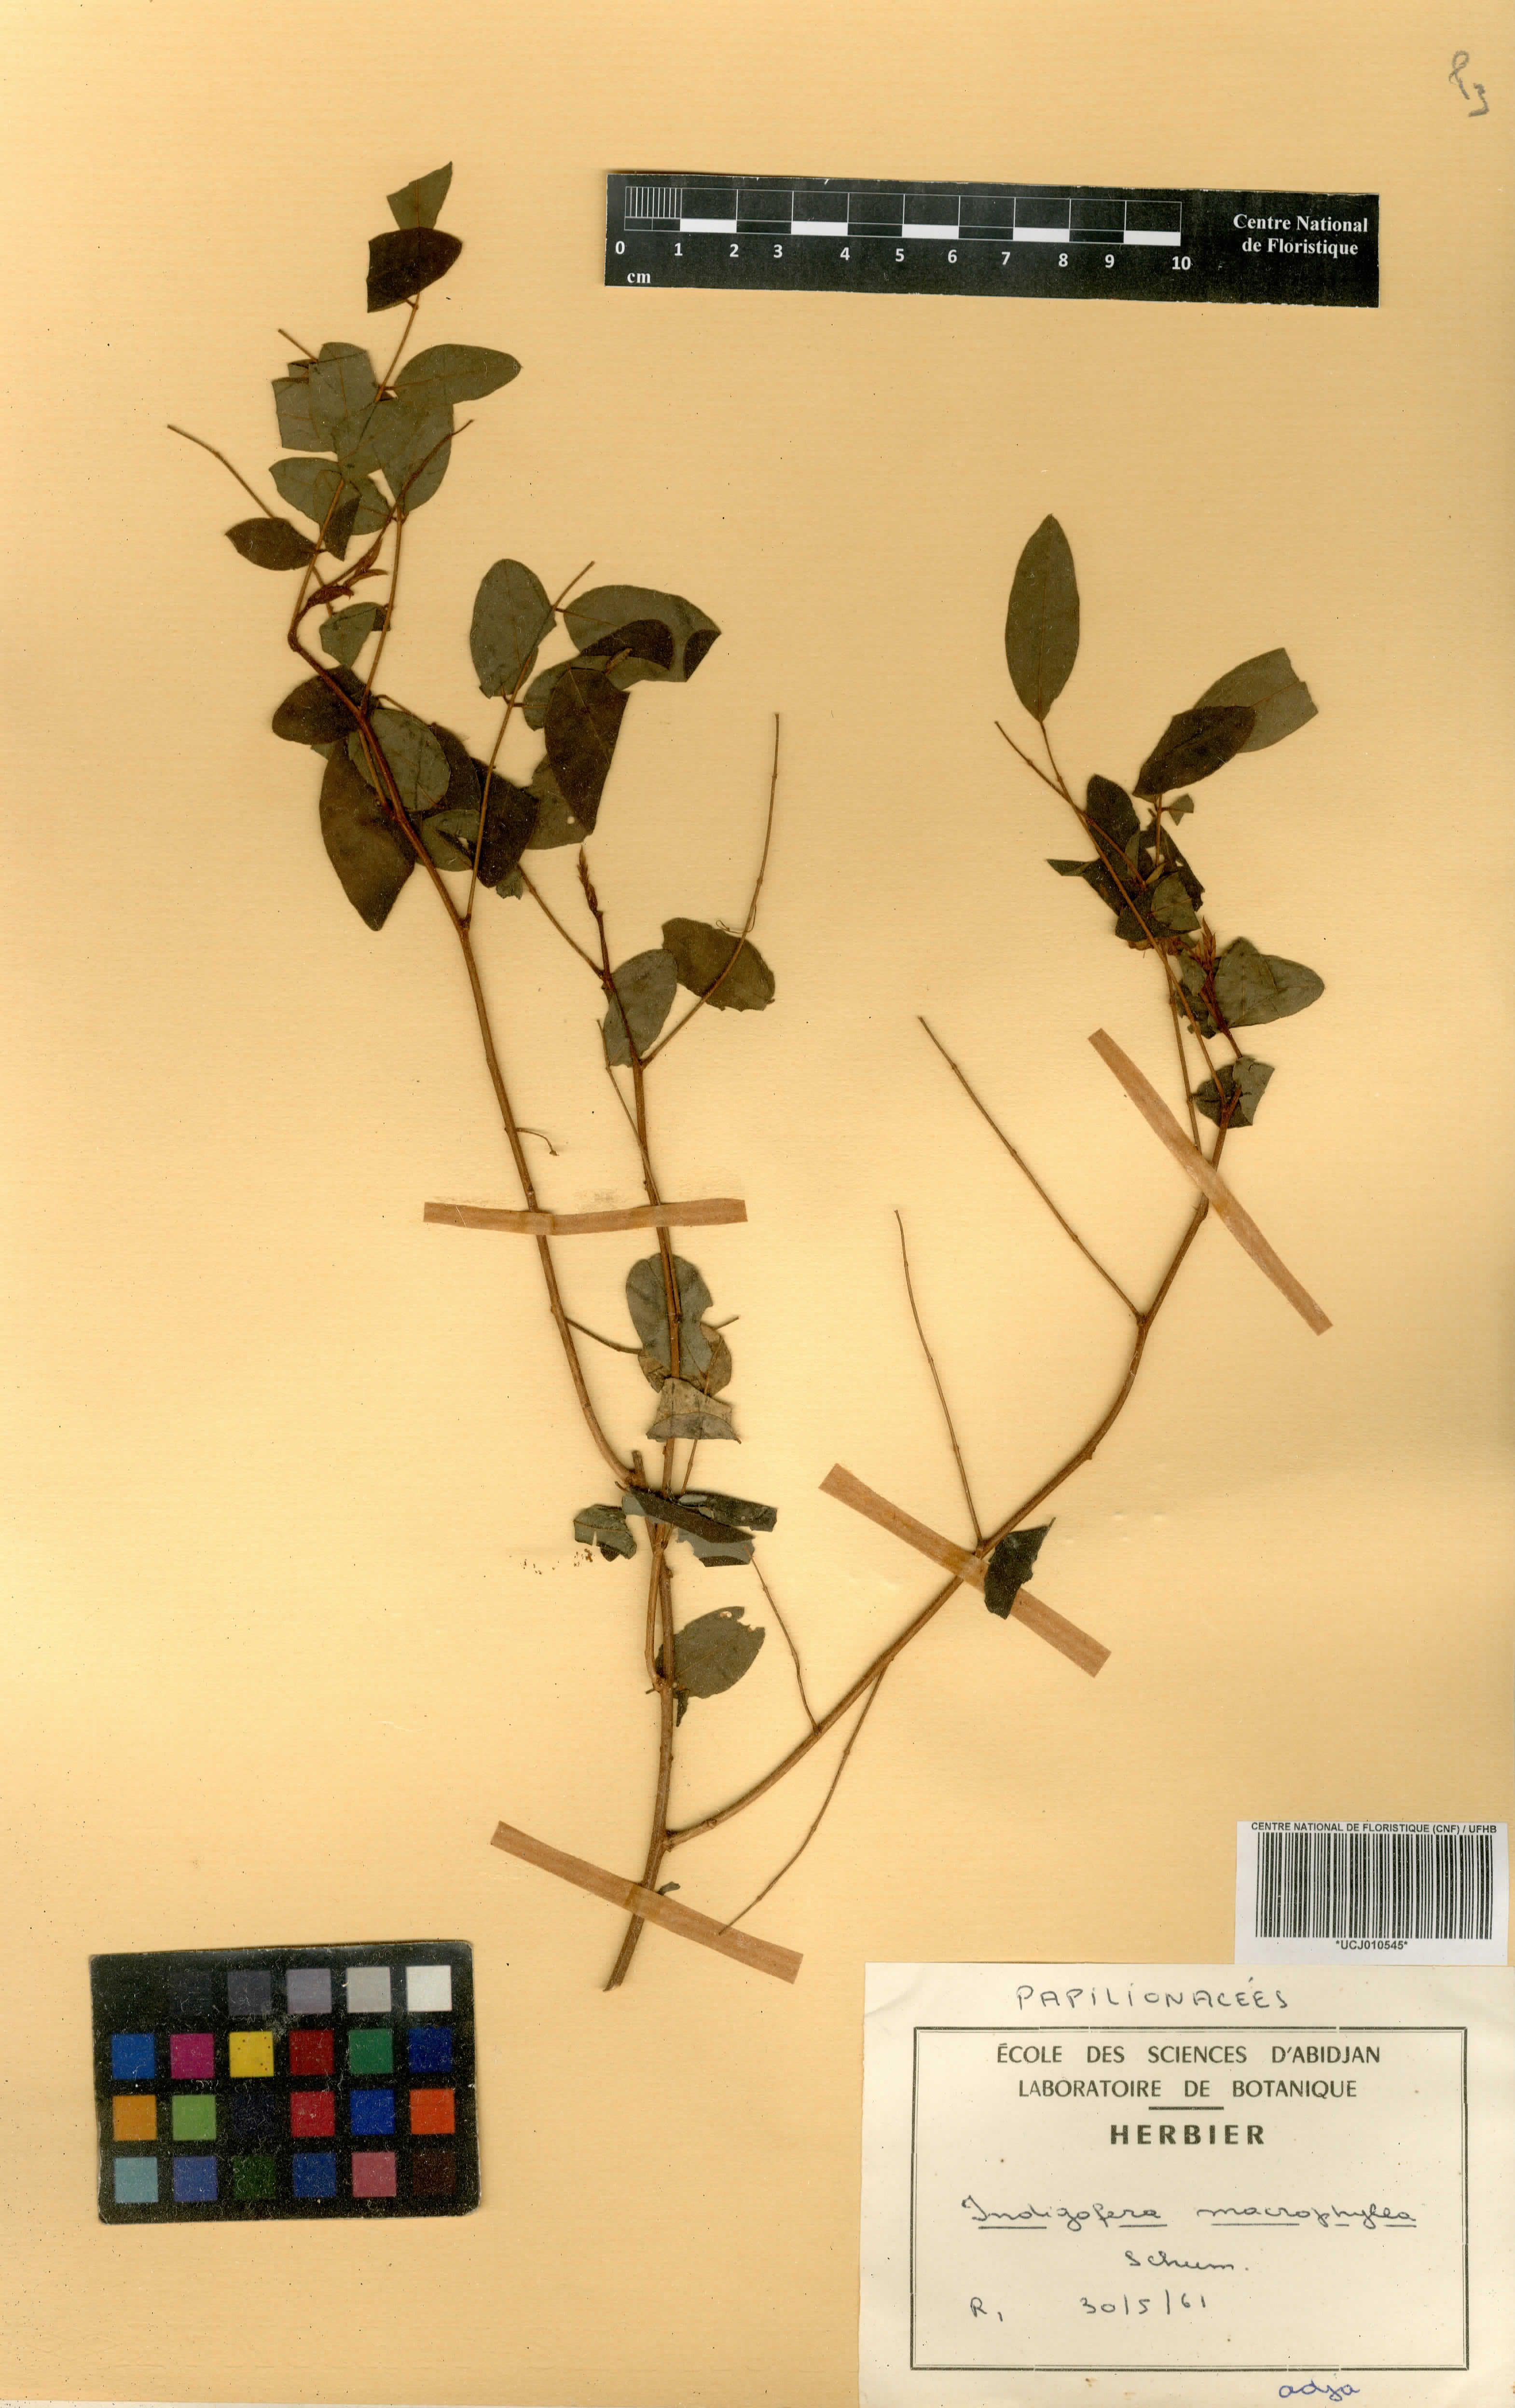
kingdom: Plantae
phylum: Tracheophyta
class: Magnoliopsida
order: Fabales
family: Fabaceae
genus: Indigofera
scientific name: Indigofera macrophylla
